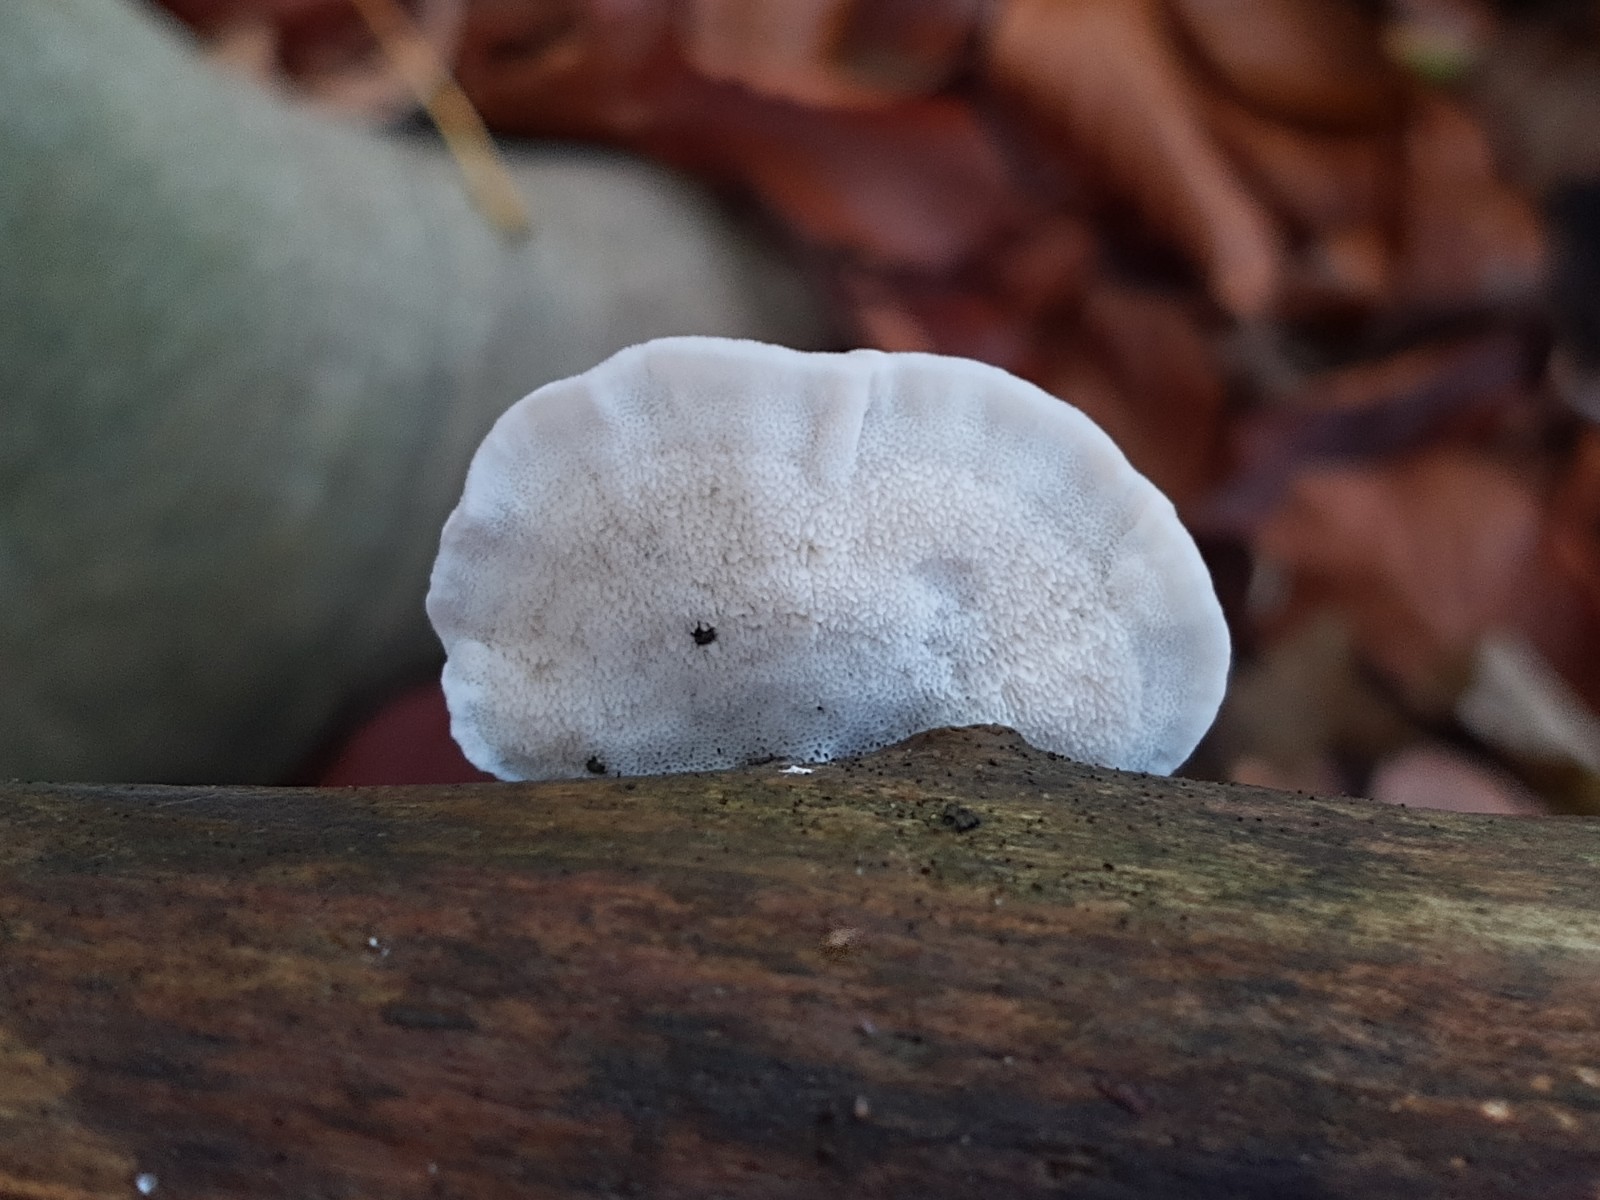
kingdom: Fungi
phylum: Basidiomycota
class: Agaricomycetes
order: Polyporales
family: Polyporaceae
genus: Cyanosporus
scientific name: Cyanosporus caesius
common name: blålig kødporesvamp
